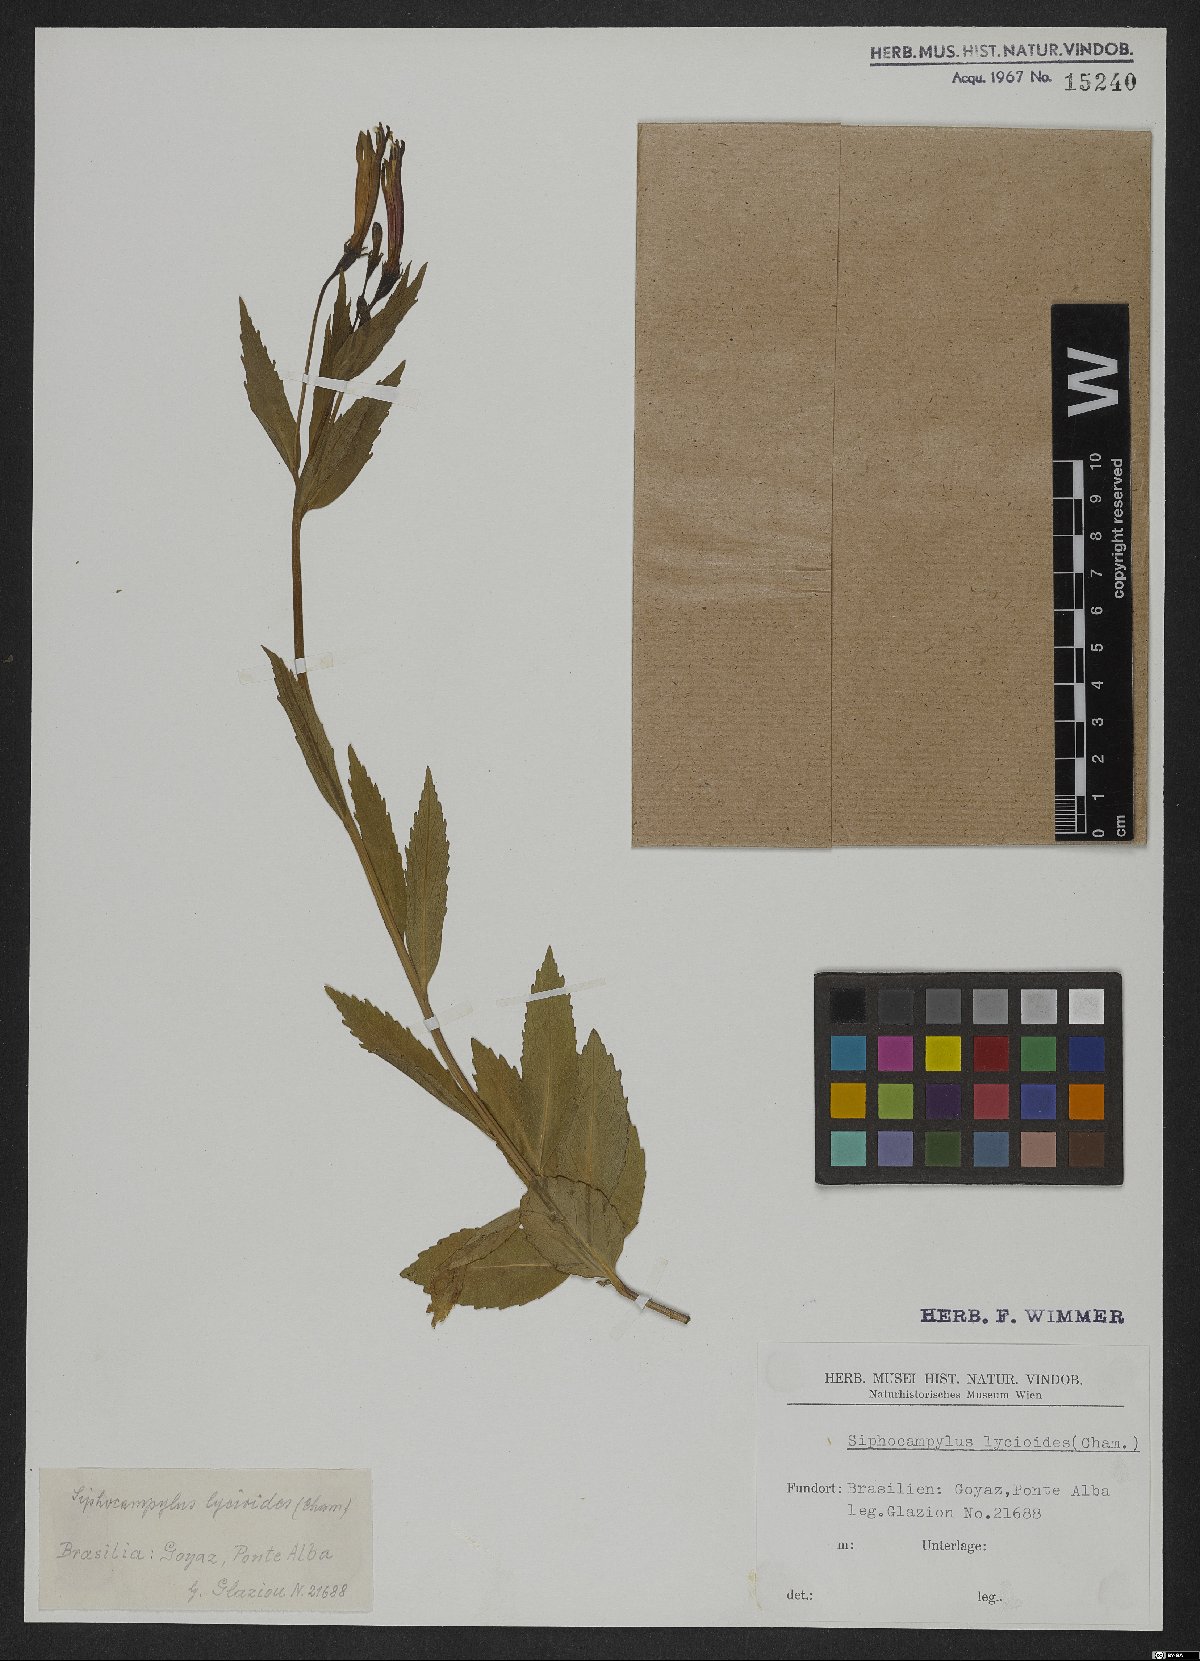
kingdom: Plantae
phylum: Tracheophyta
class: Magnoliopsida
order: Asterales
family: Campanulaceae
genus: Siphocampylus
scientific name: Siphocampylus lycioides
